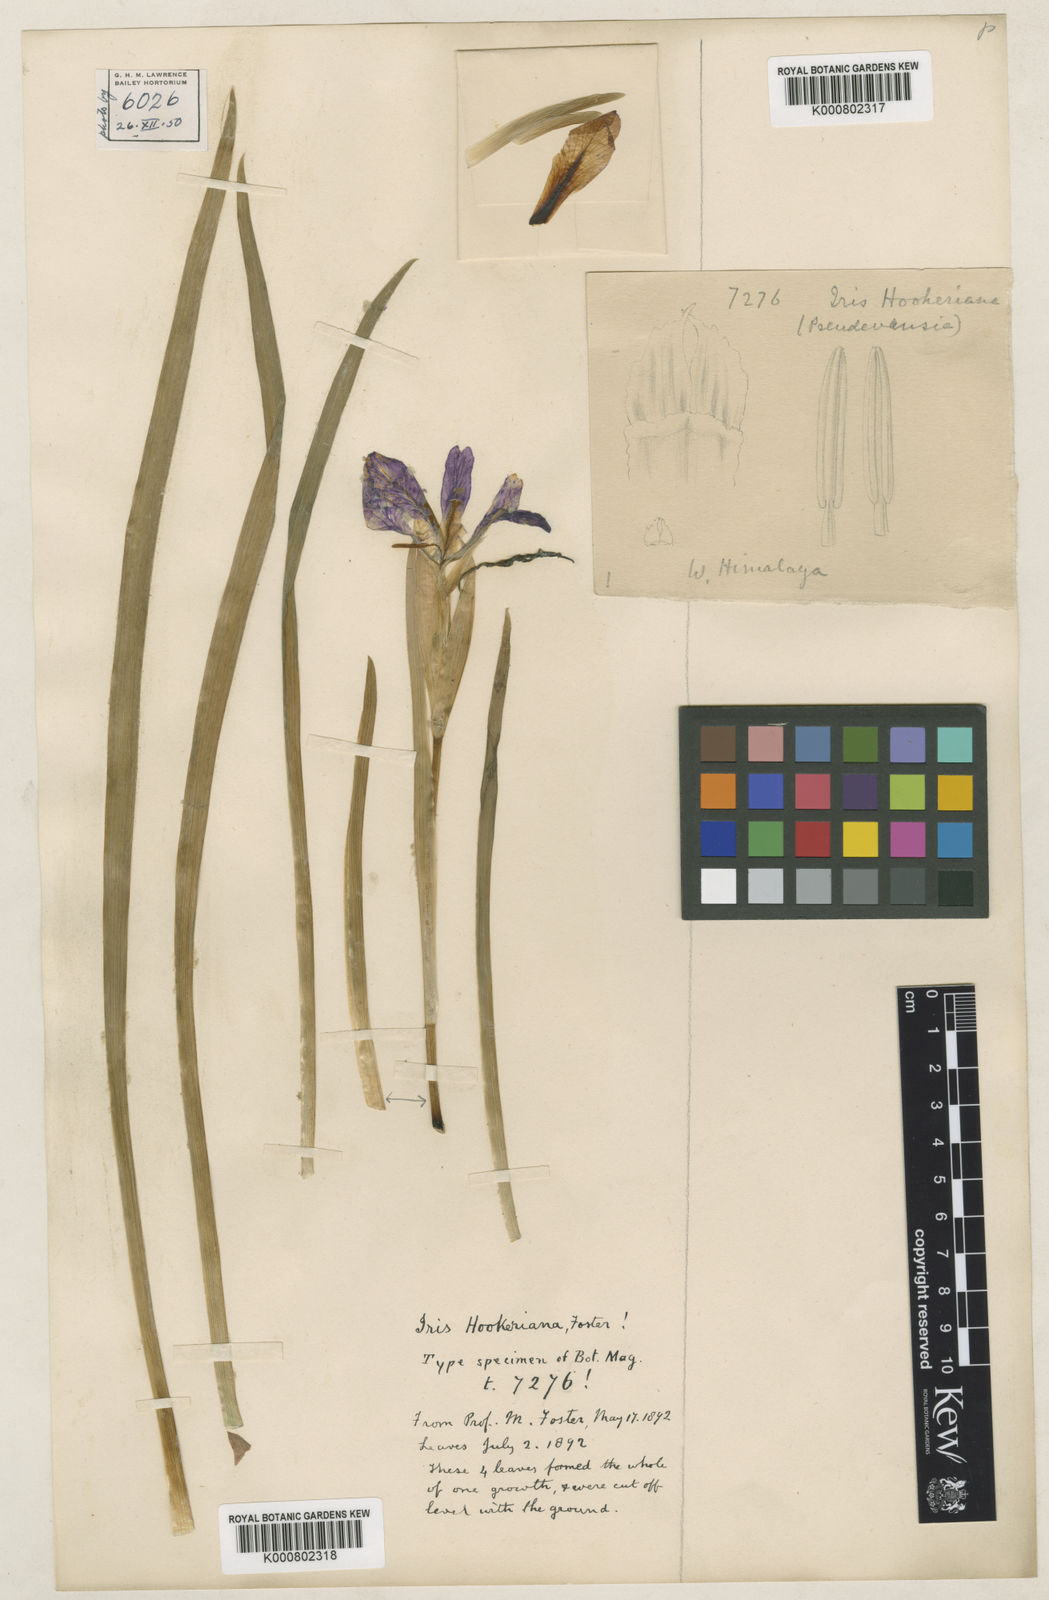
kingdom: Plantae
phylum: Tracheophyta
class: Liliopsida
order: Asparagales
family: Iridaceae
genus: Iris
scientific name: Iris hookeriana
